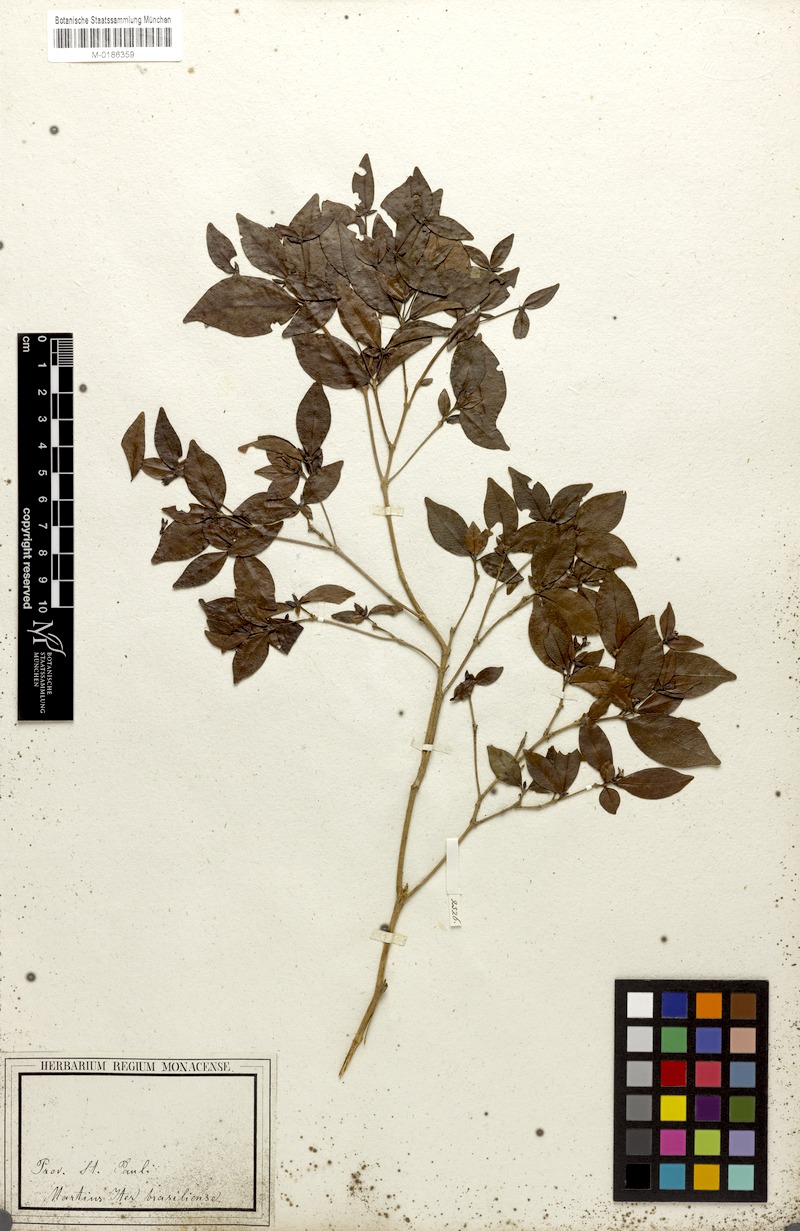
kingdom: Plantae
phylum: Tracheophyta
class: Magnoliopsida
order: Gentianales
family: Rubiaceae
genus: Cordiera
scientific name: Cordiera concolor
